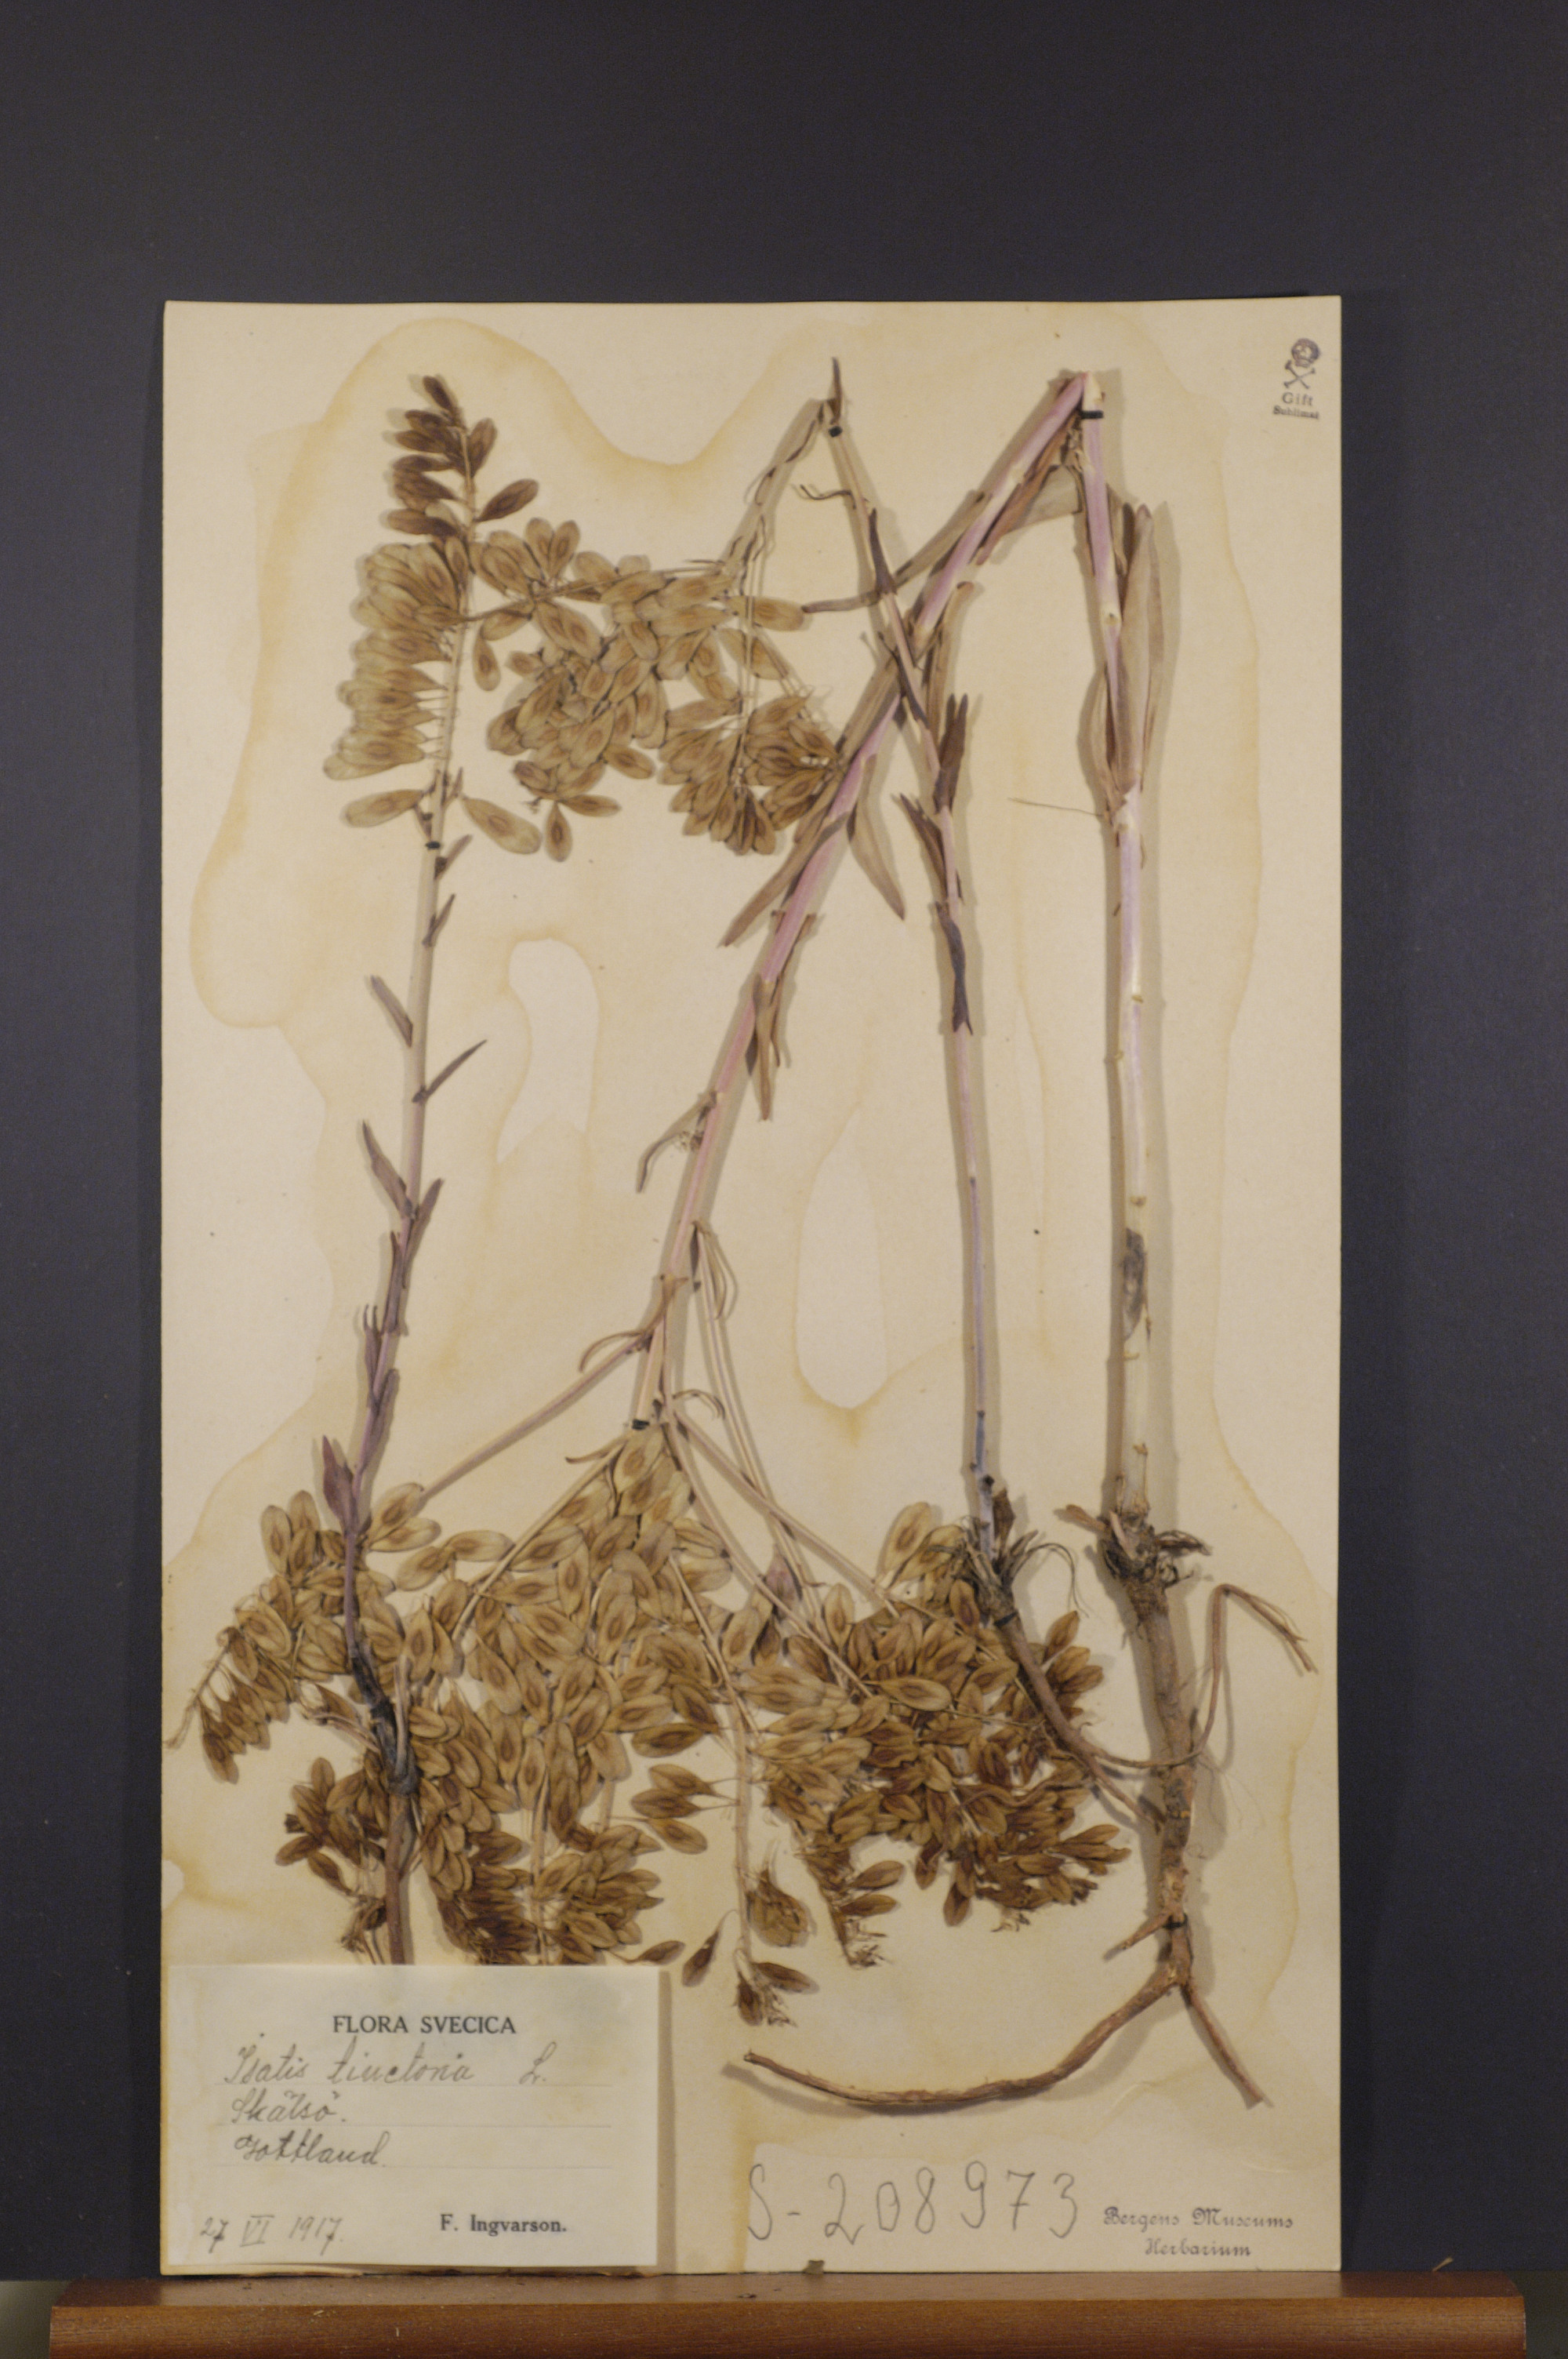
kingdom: Plantae
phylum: Tracheophyta
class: Magnoliopsida
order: Brassicales
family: Brassicaceae
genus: Isatis
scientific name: Isatis tinctoria
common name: Woad
